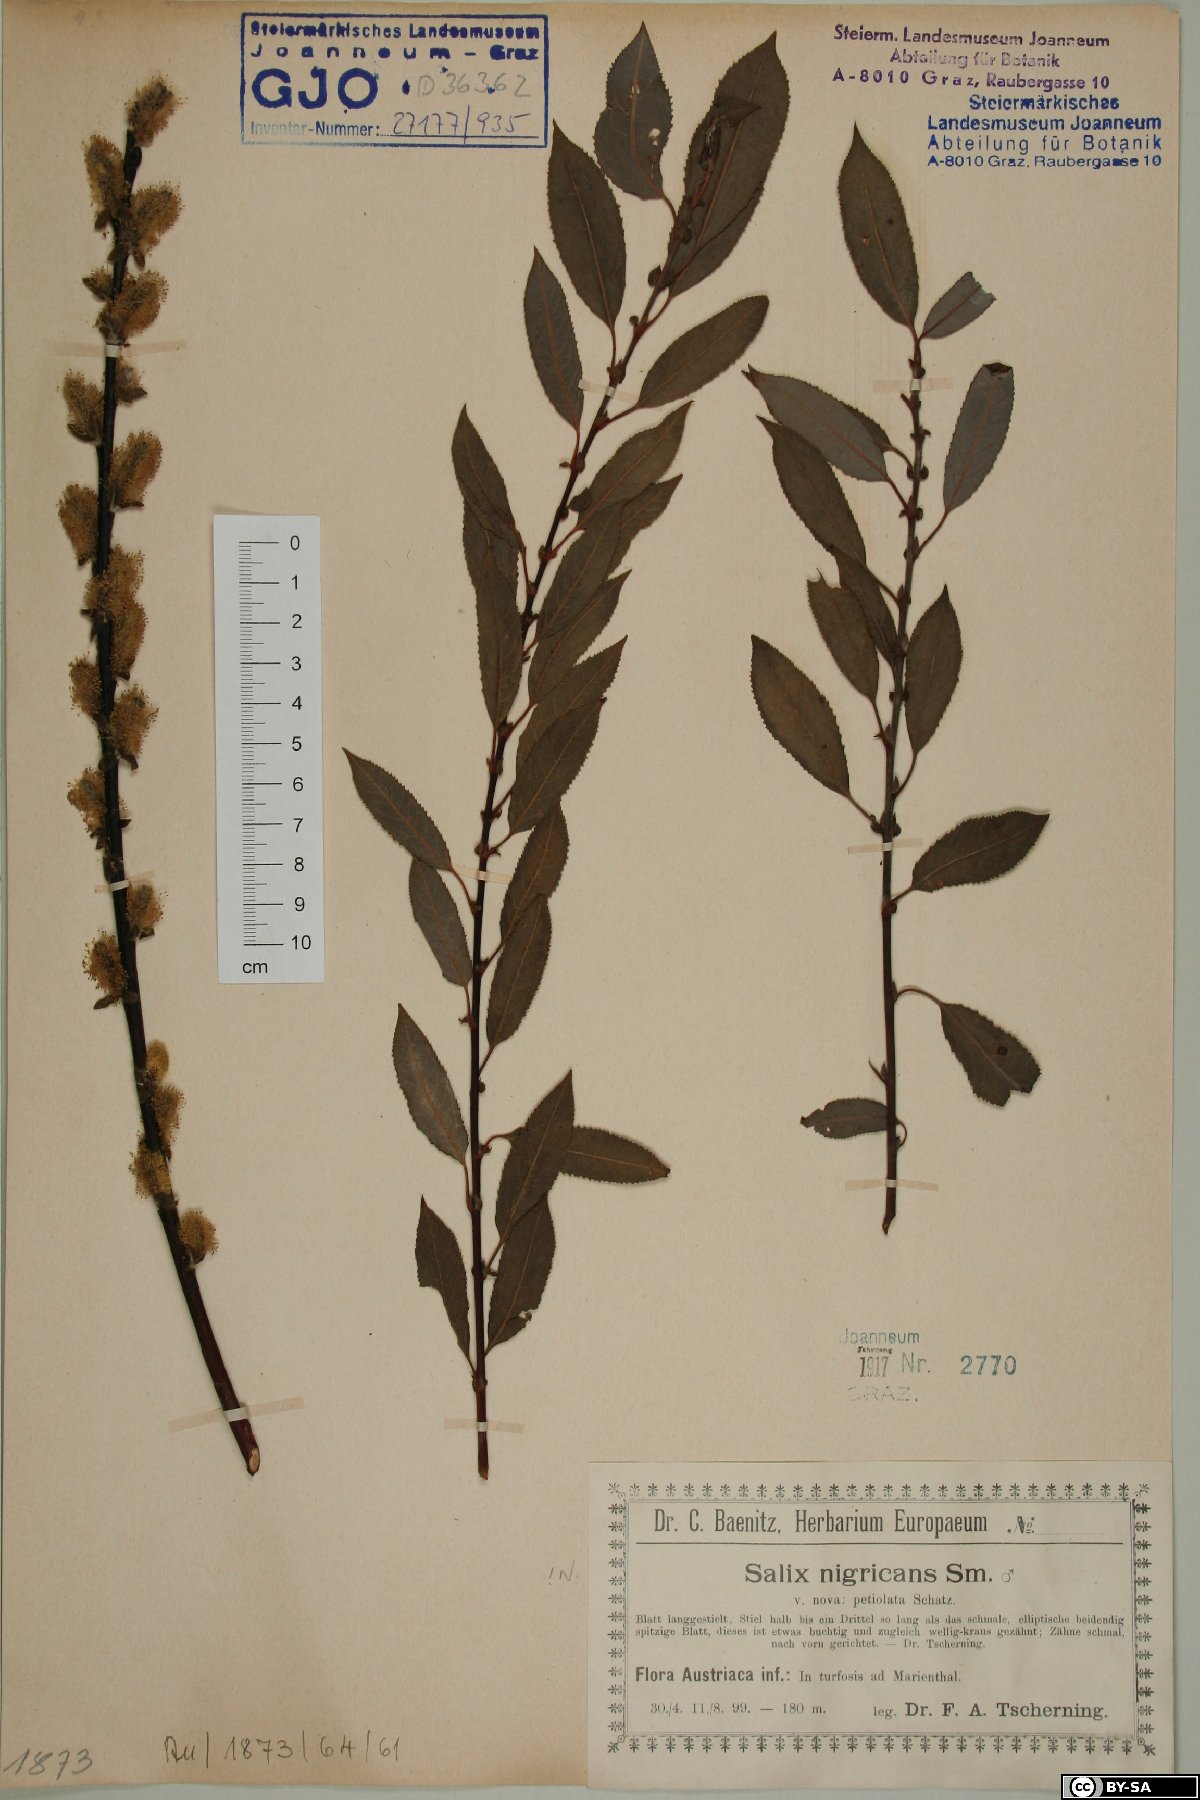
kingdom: Plantae
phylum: Tracheophyta
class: Magnoliopsida
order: Malpighiales
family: Salicaceae
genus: Salix
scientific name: Salix myrsinifolia
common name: Dark-leaved willow
